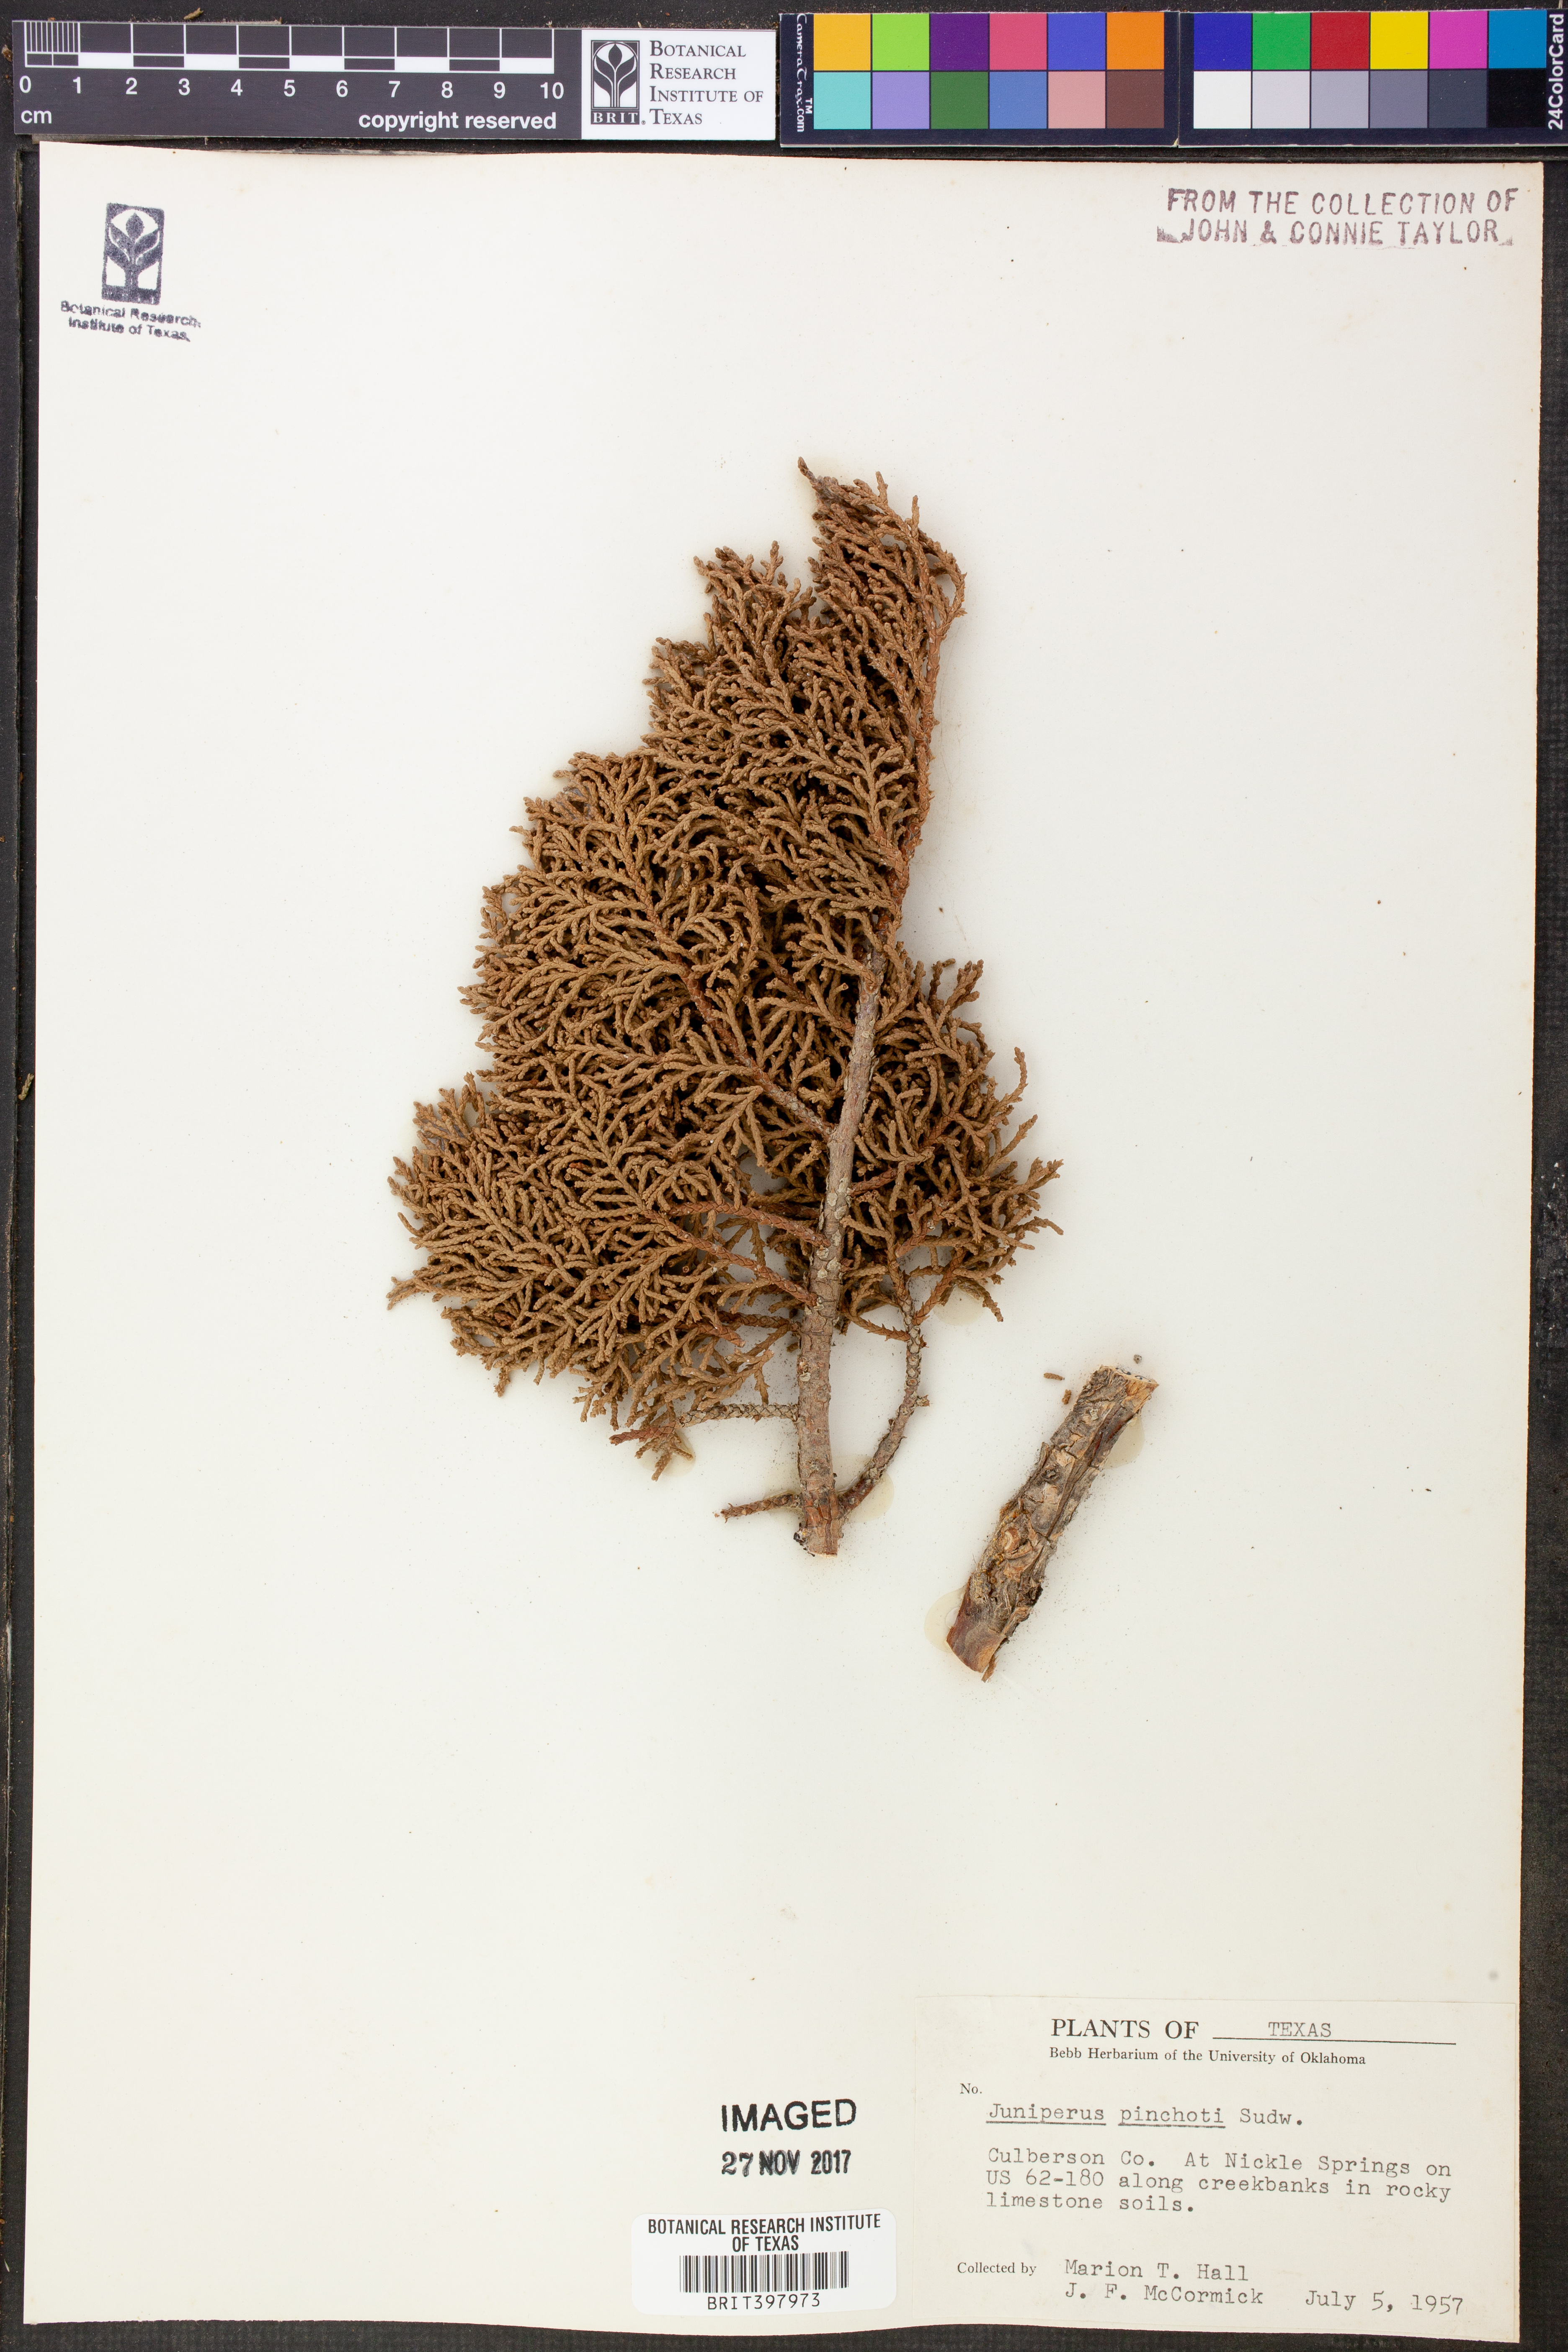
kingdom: Plantae
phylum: Tracheophyta
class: Pinopsida
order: Pinales
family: Cupressaceae
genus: Juniperus
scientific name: Juniperus pinchotii
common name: Pinchot juniper
